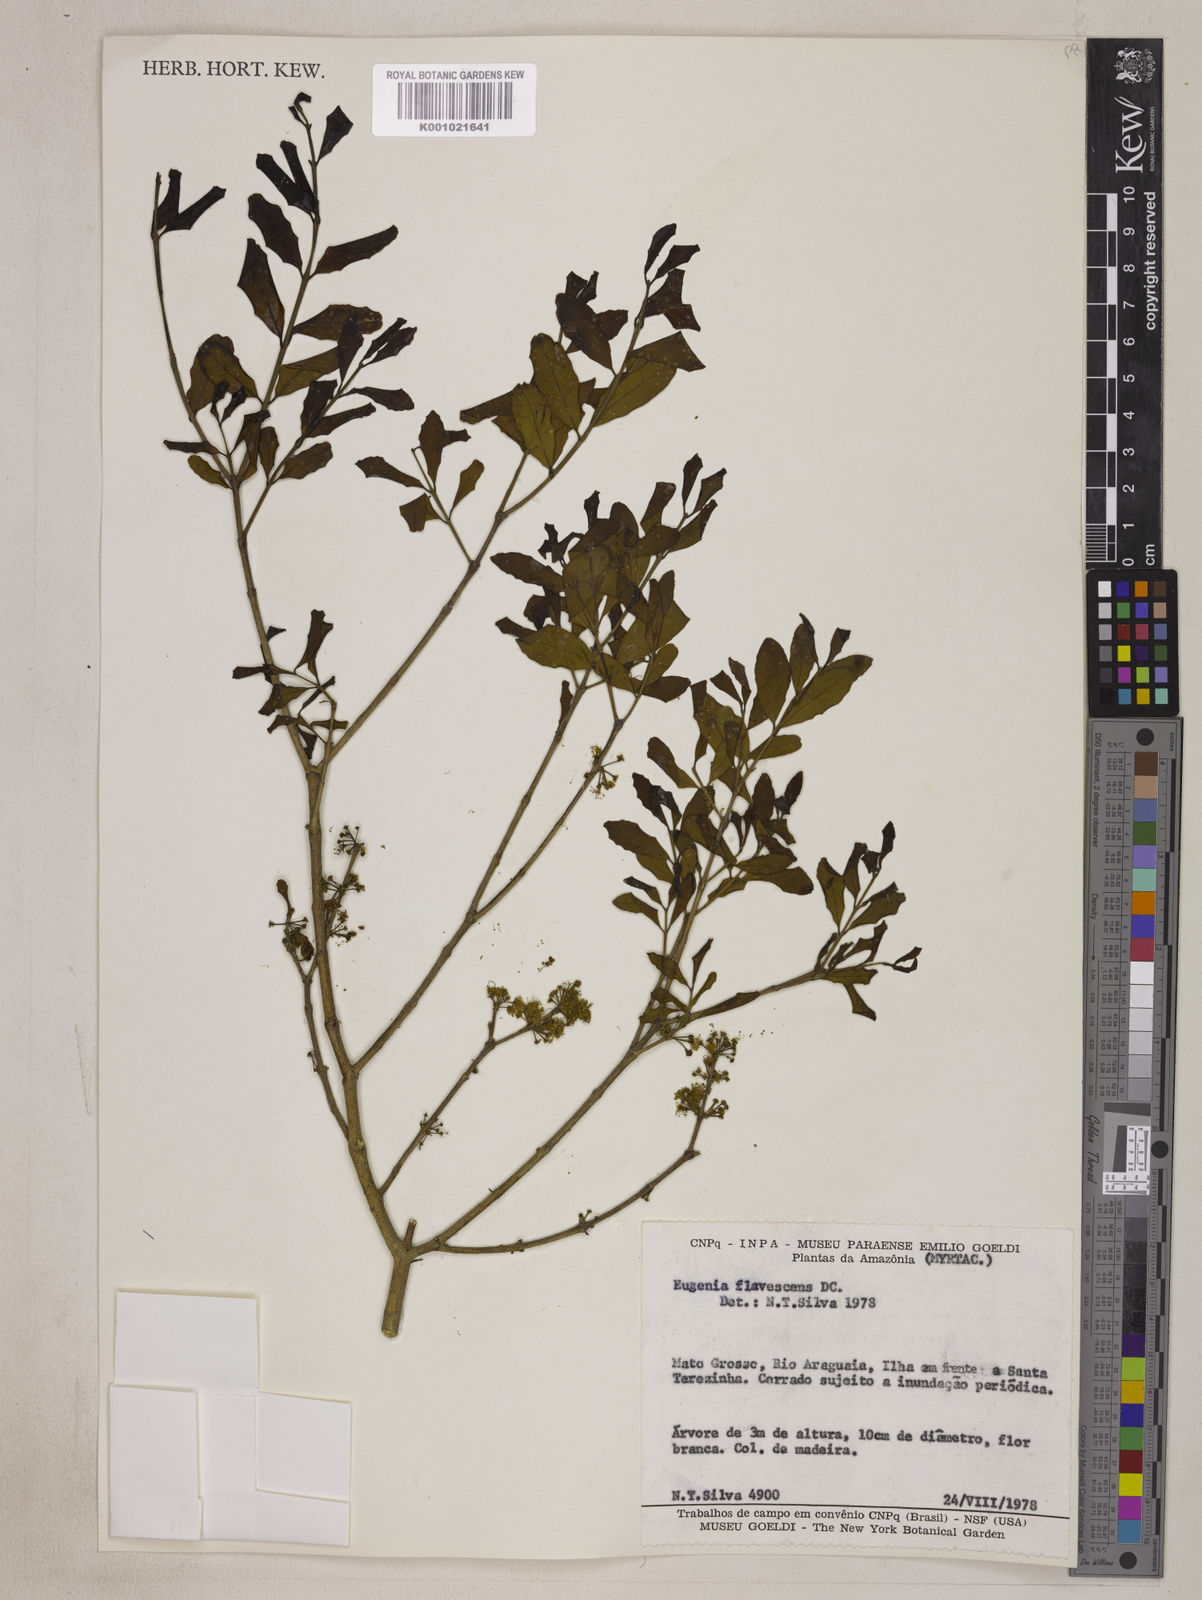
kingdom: Plantae
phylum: Tracheophyta
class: Magnoliopsida
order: Myrtales
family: Myrtaceae
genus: Eugenia
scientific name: Eugenia flavescens
